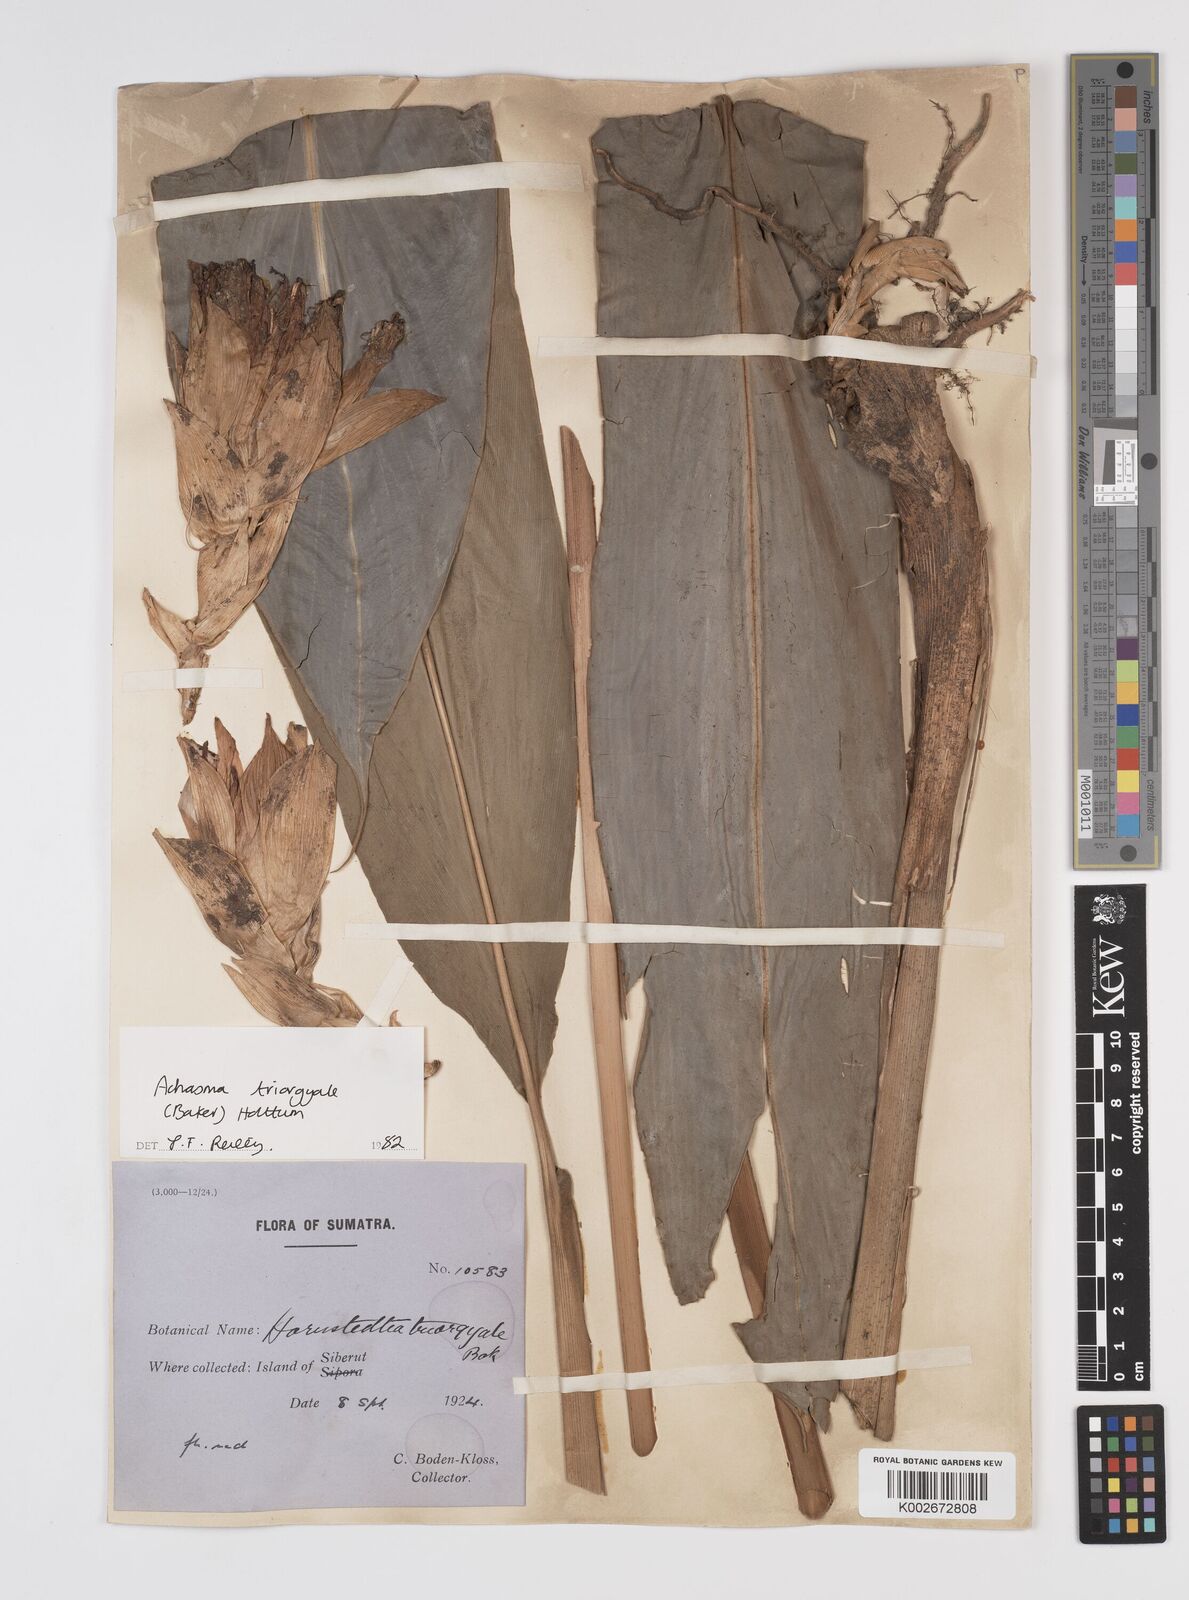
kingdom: Plantae
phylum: Tracheophyta
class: Liliopsida
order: Zingiberales
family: Zingiberaceae
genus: Etlingera
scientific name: Etlingera triorgyalis
